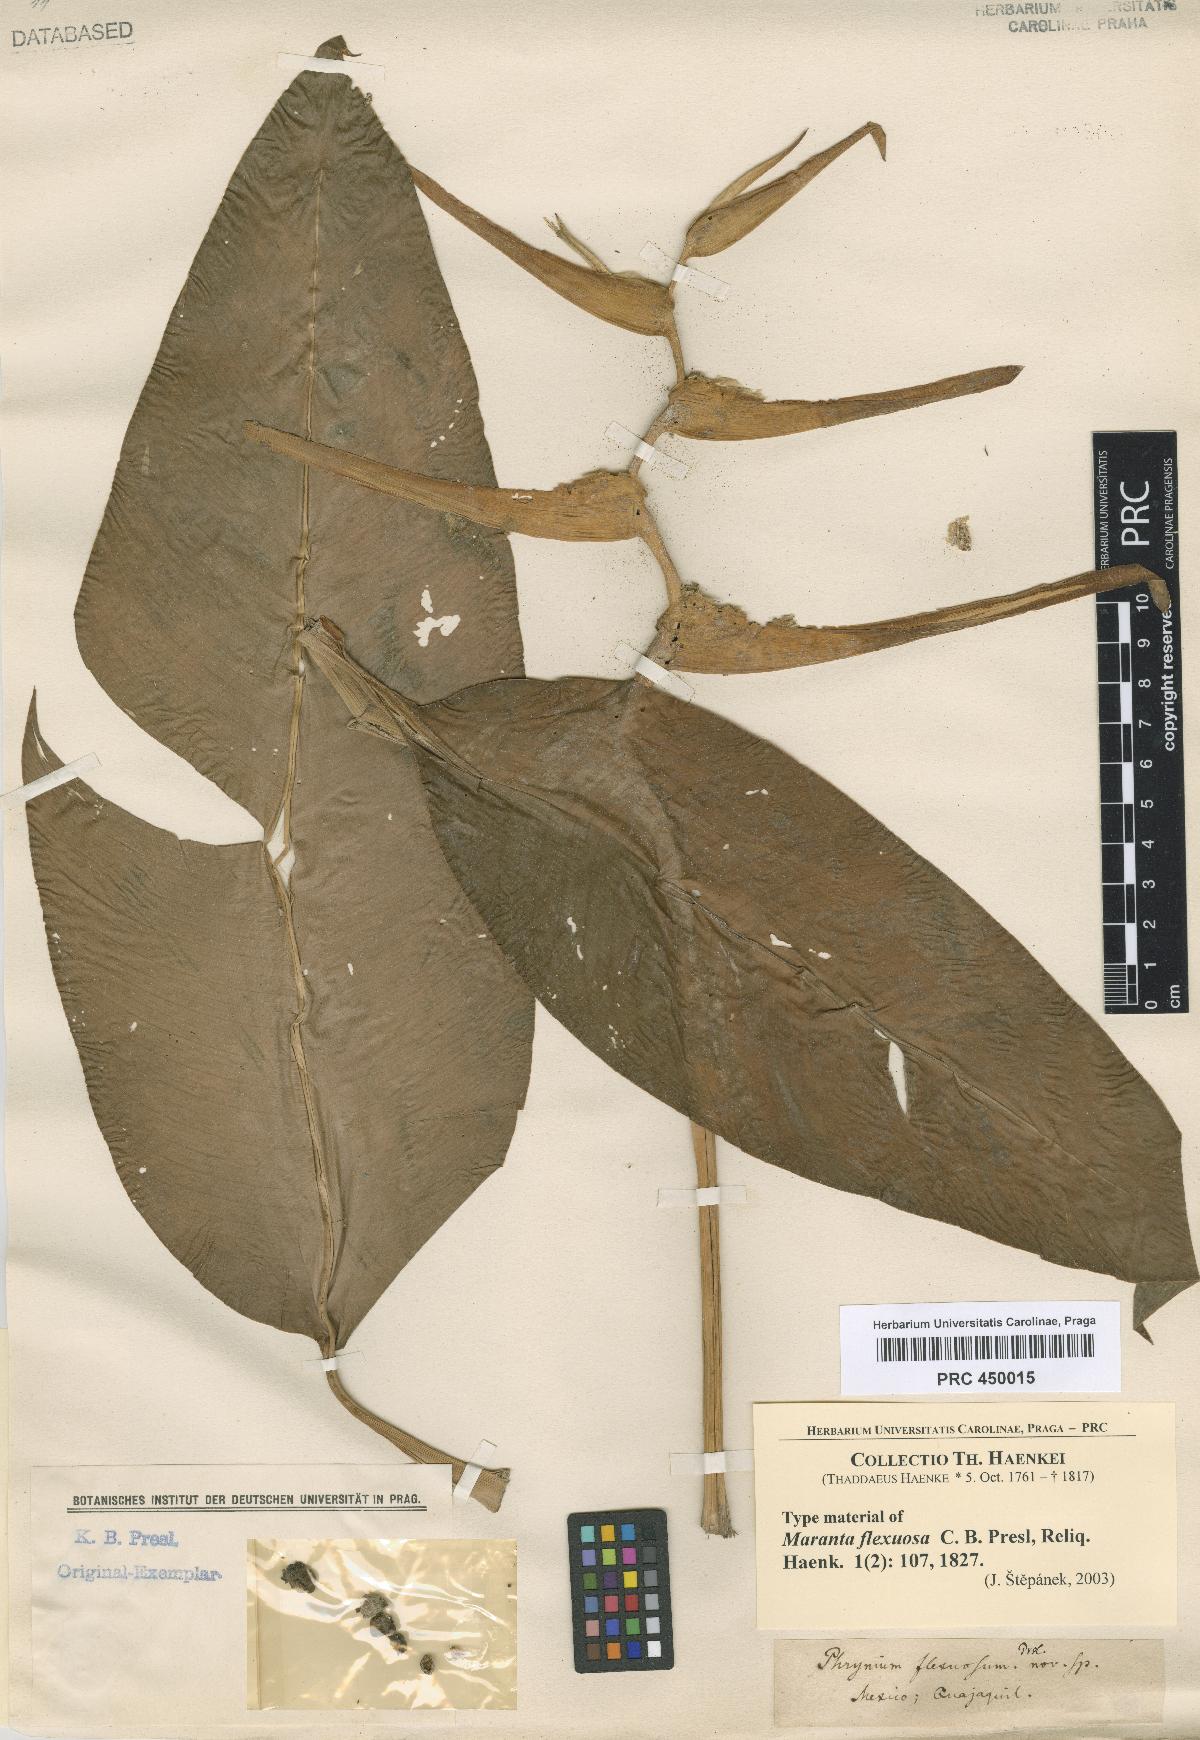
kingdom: Plantae
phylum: Tracheophyta
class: Liliopsida
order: Zingiberales
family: Marantaceae
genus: Thalia
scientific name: Thalia geniculata
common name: Arrowroot
